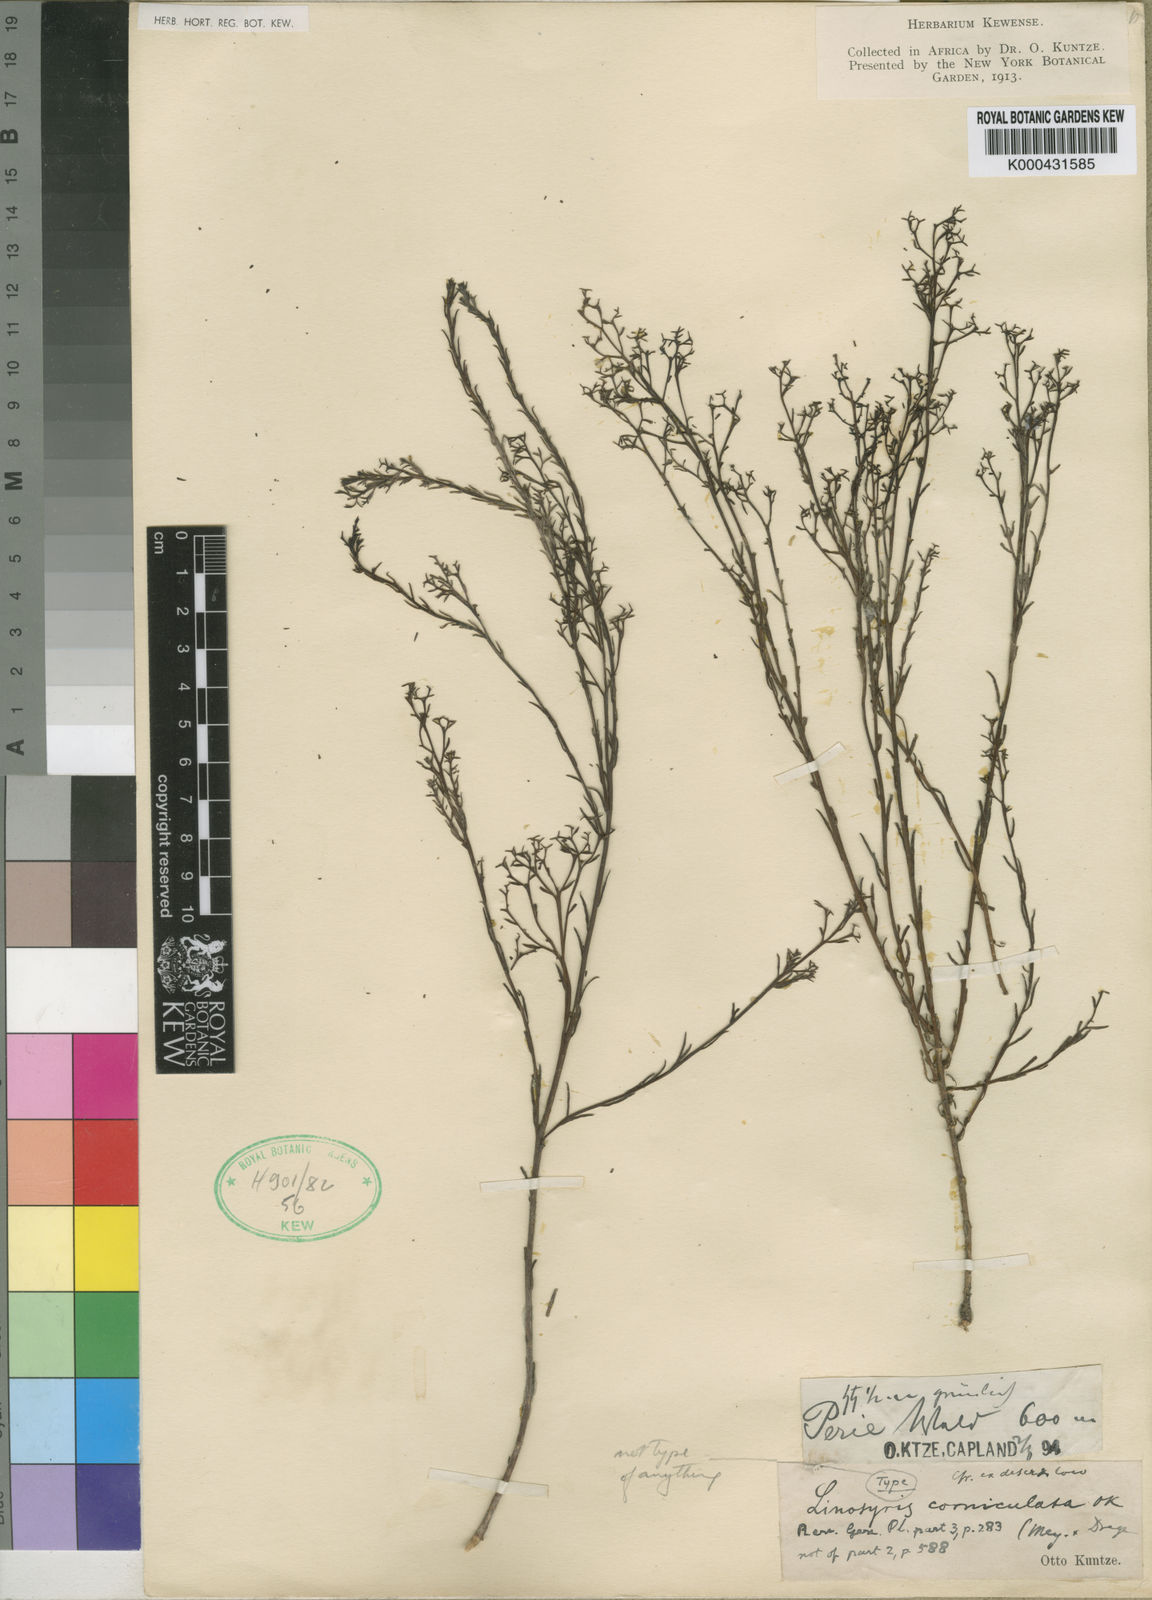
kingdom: Plantae
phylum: Tracheophyta
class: Magnoliopsida
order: Santalales
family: Thesiaceae
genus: Thesium
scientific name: Thesium pallidum
